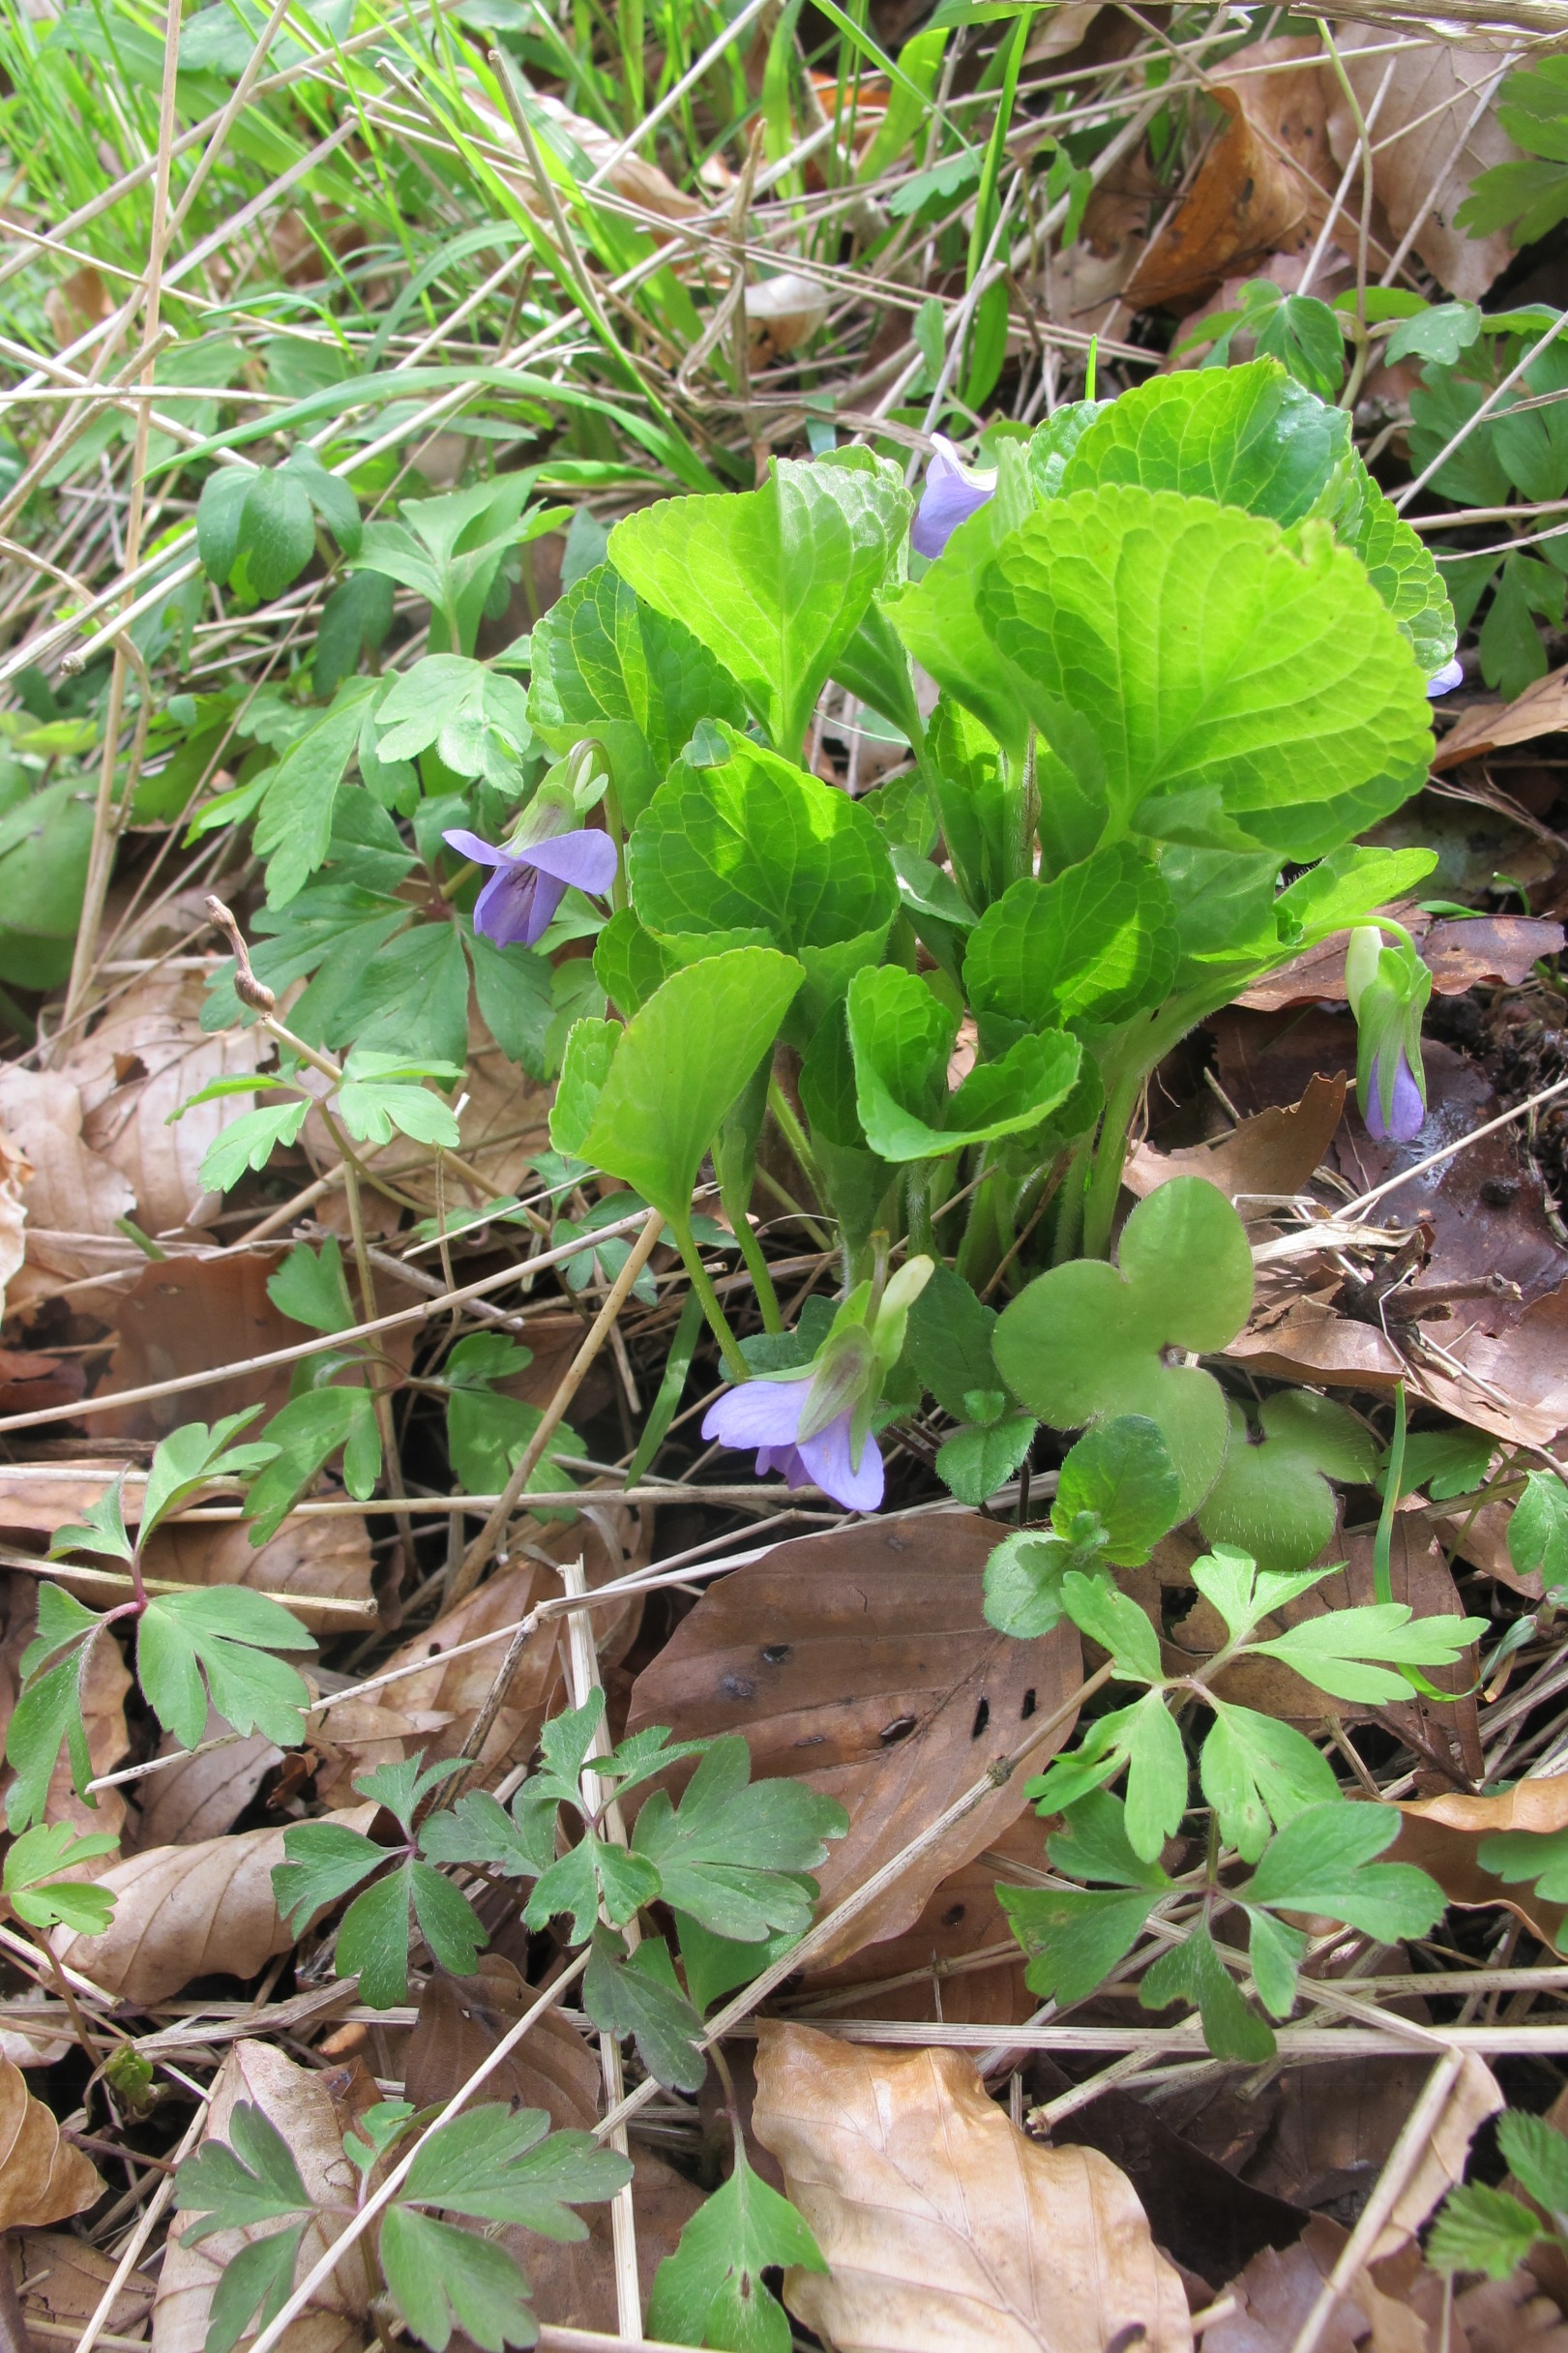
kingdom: Plantae
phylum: Tracheophyta
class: Magnoliopsida
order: Malpighiales
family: Violaceae
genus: Viola
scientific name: Viola mirabilis
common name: Forskelligblomstret viol
